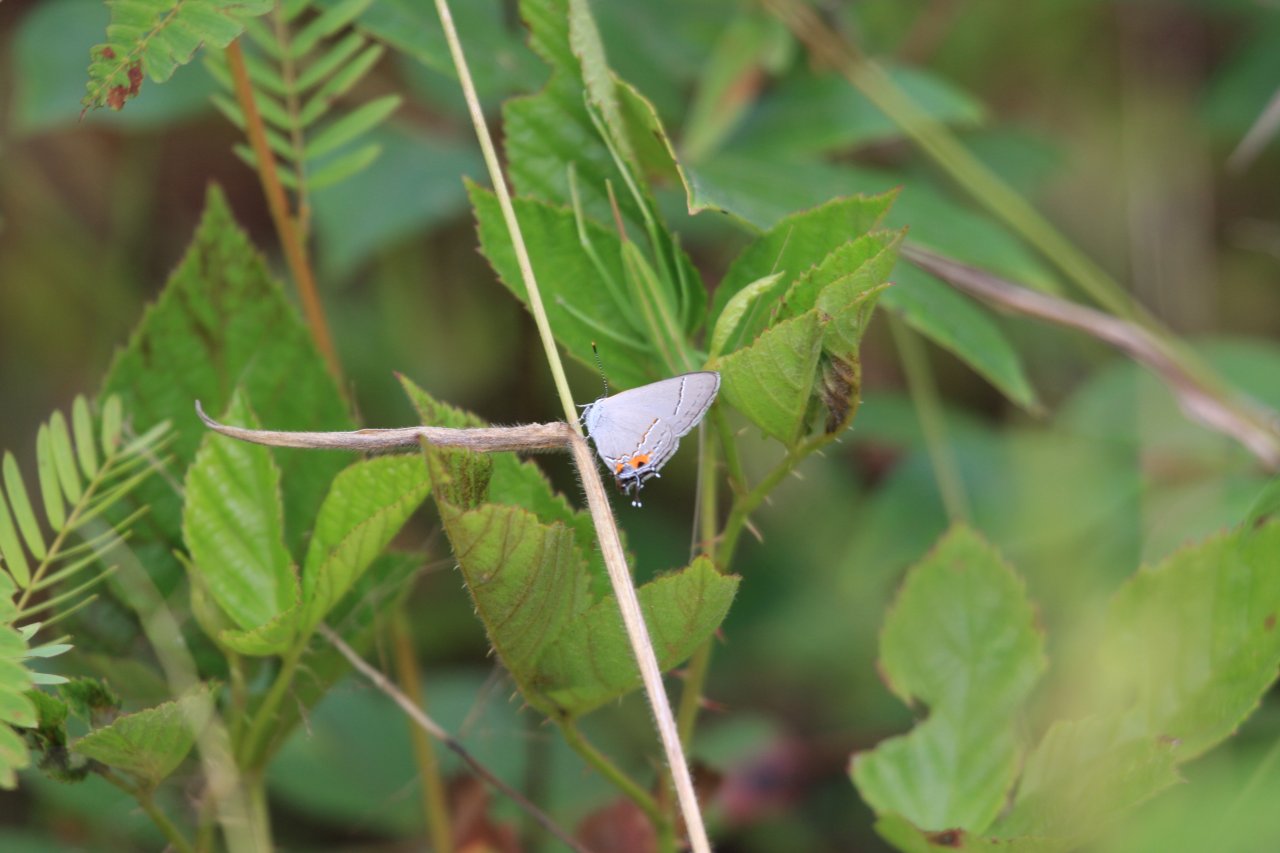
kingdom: Animalia
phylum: Arthropoda
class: Insecta
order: Lepidoptera
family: Lycaenidae
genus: Strymon
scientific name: Strymon melinus
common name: Gray Hairstreak
